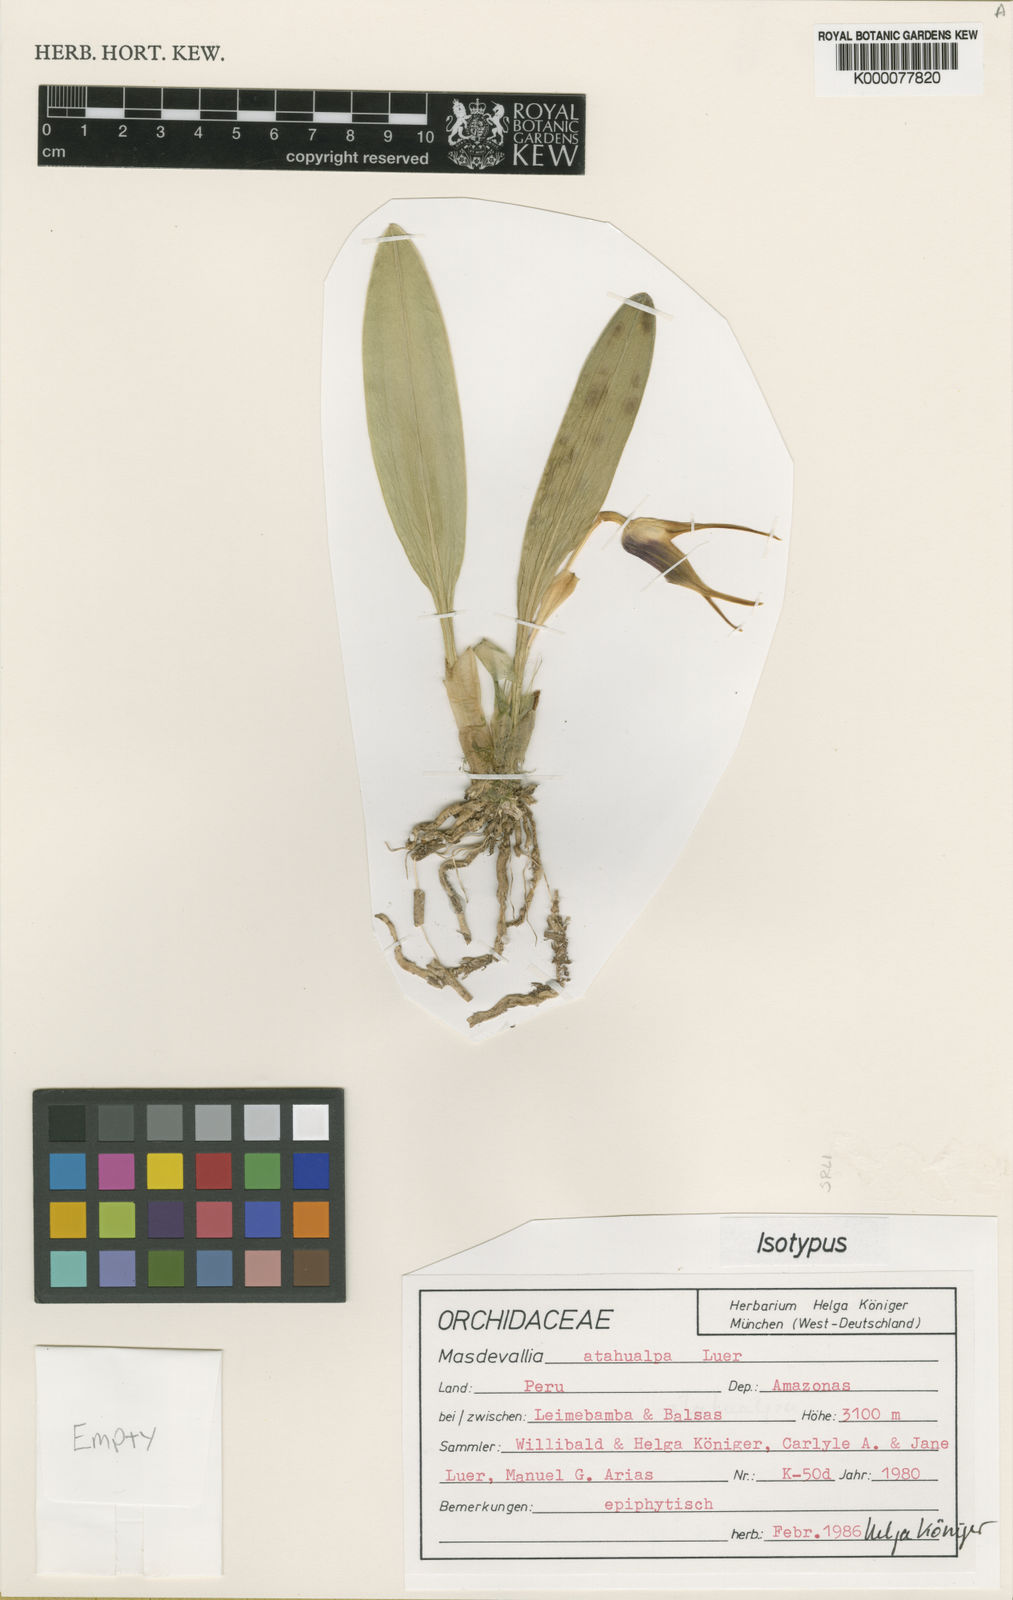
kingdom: Plantae
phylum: Tracheophyta
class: Liliopsida
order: Asparagales
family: Orchidaceae
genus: Masdevallia
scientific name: Masdevallia atahualpa
